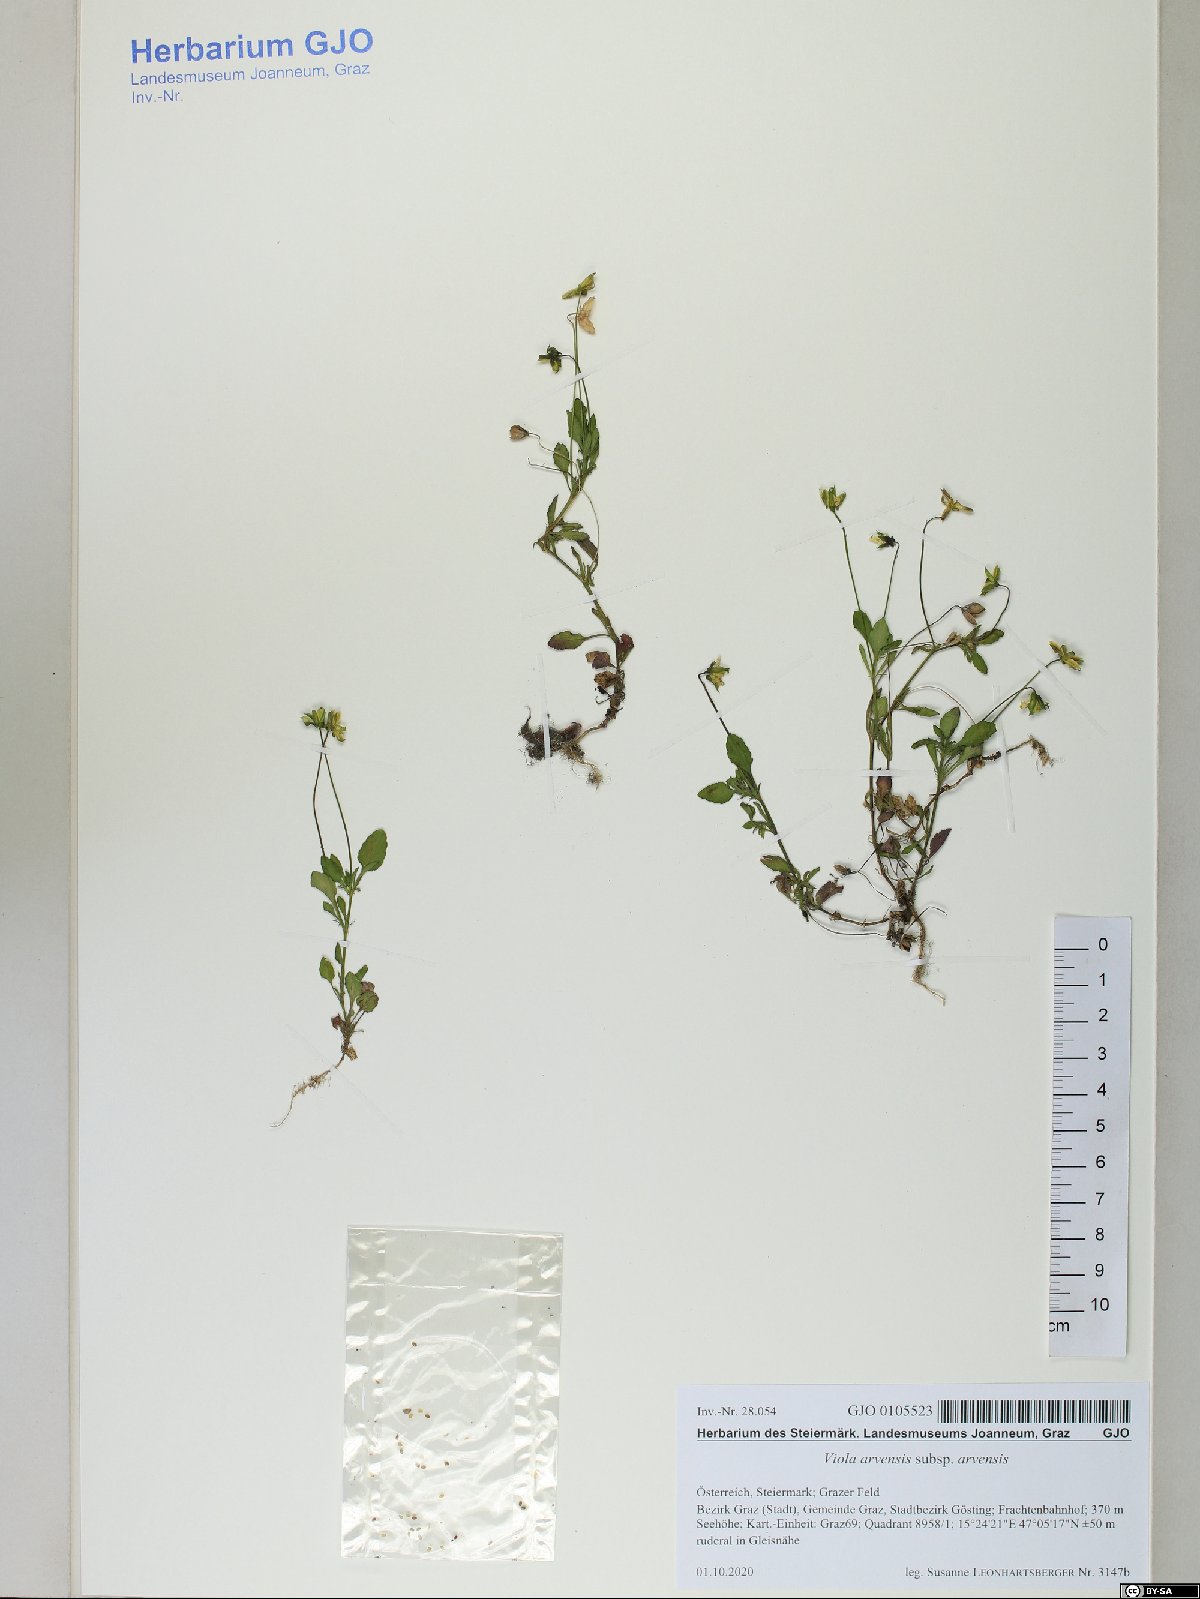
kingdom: Plantae
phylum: Tracheophyta
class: Magnoliopsida
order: Malpighiales
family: Violaceae
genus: Viola
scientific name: Viola arvensis
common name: Field pansy
